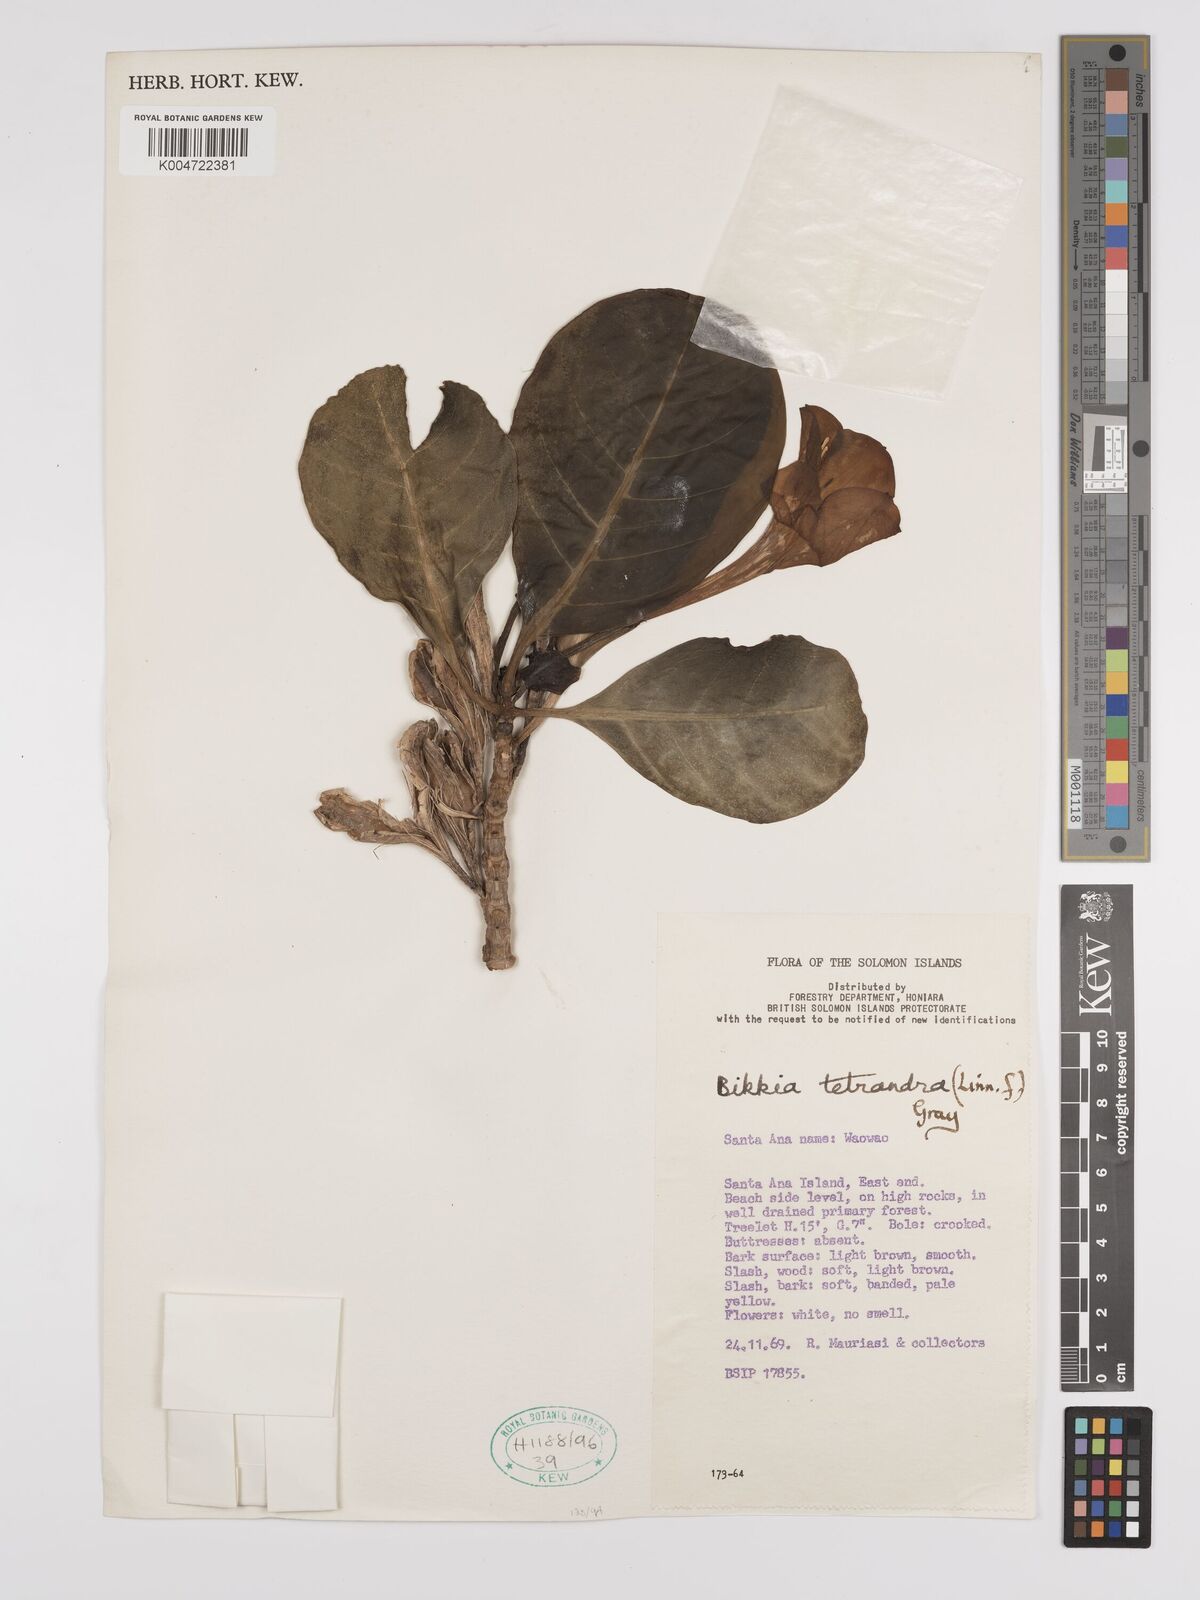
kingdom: Plantae
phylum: Tracheophyta
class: Magnoliopsida
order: Gentianales
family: Rubiaceae
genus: Bikkia
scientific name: Bikkia
